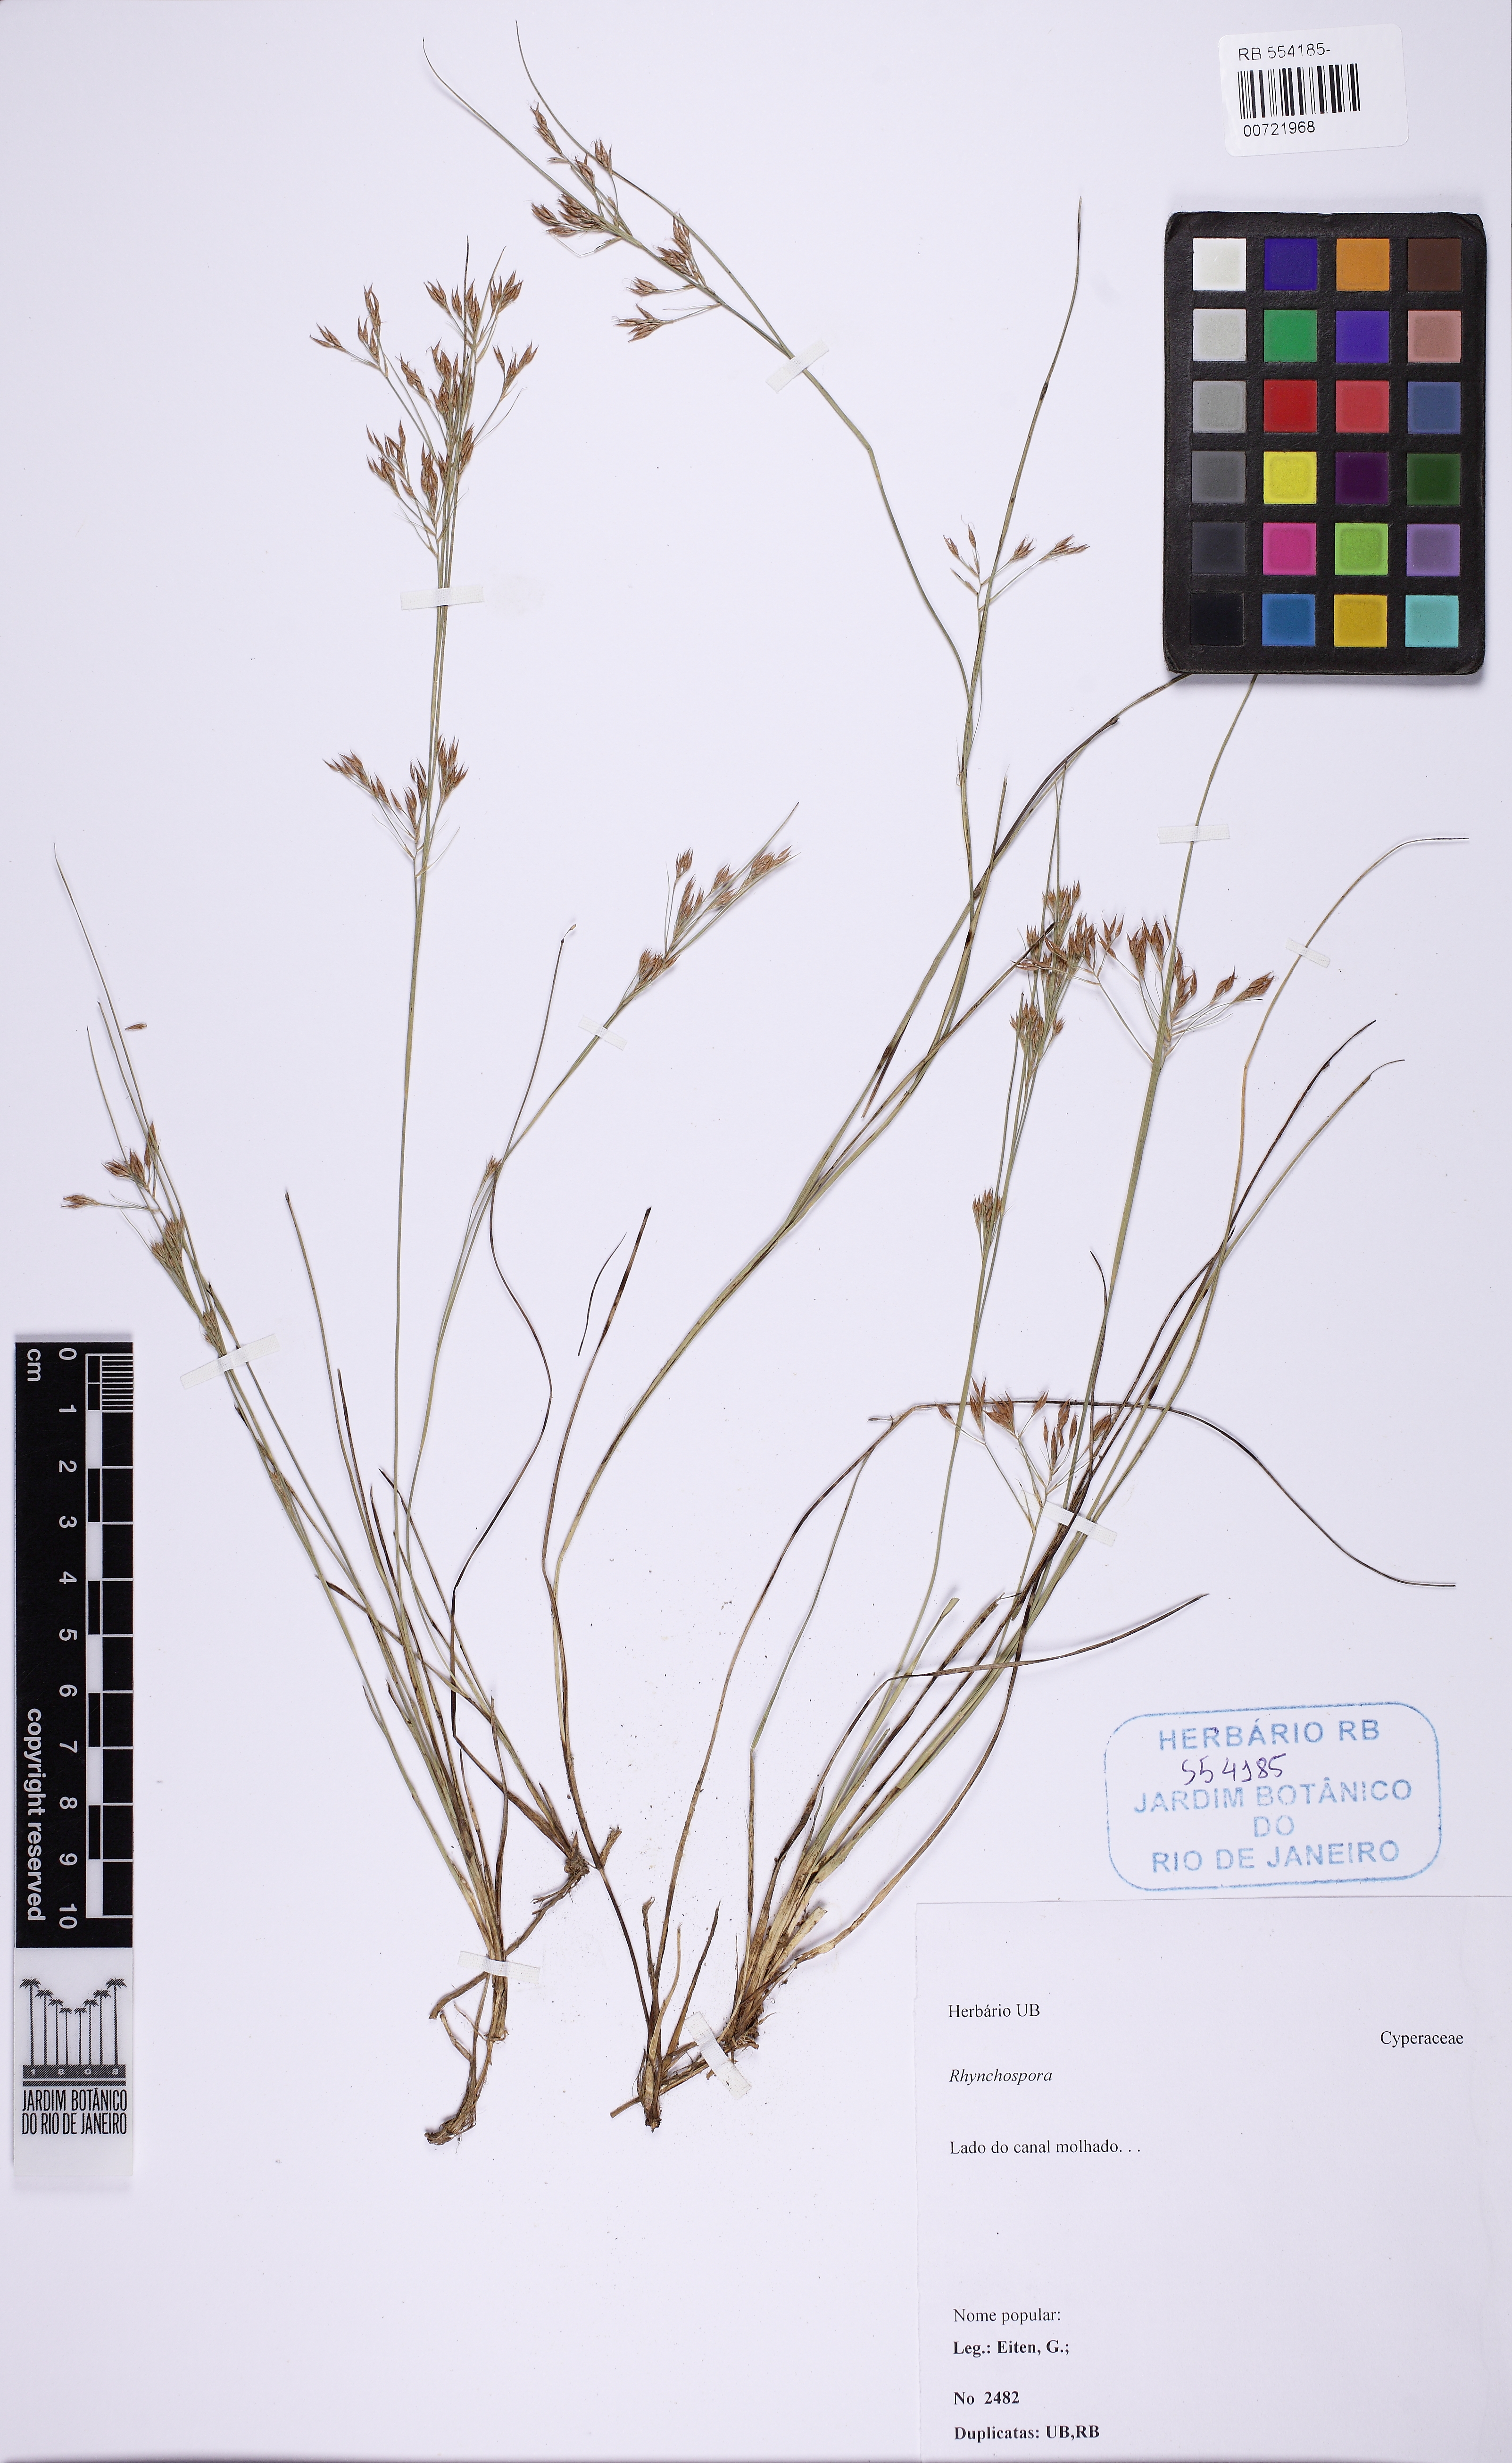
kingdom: Plantae
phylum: Tracheophyta
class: Liliopsida
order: Poales
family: Cyperaceae
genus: Rhynchospora
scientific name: Rhynchospora tenuis
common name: Quill beaksedge
